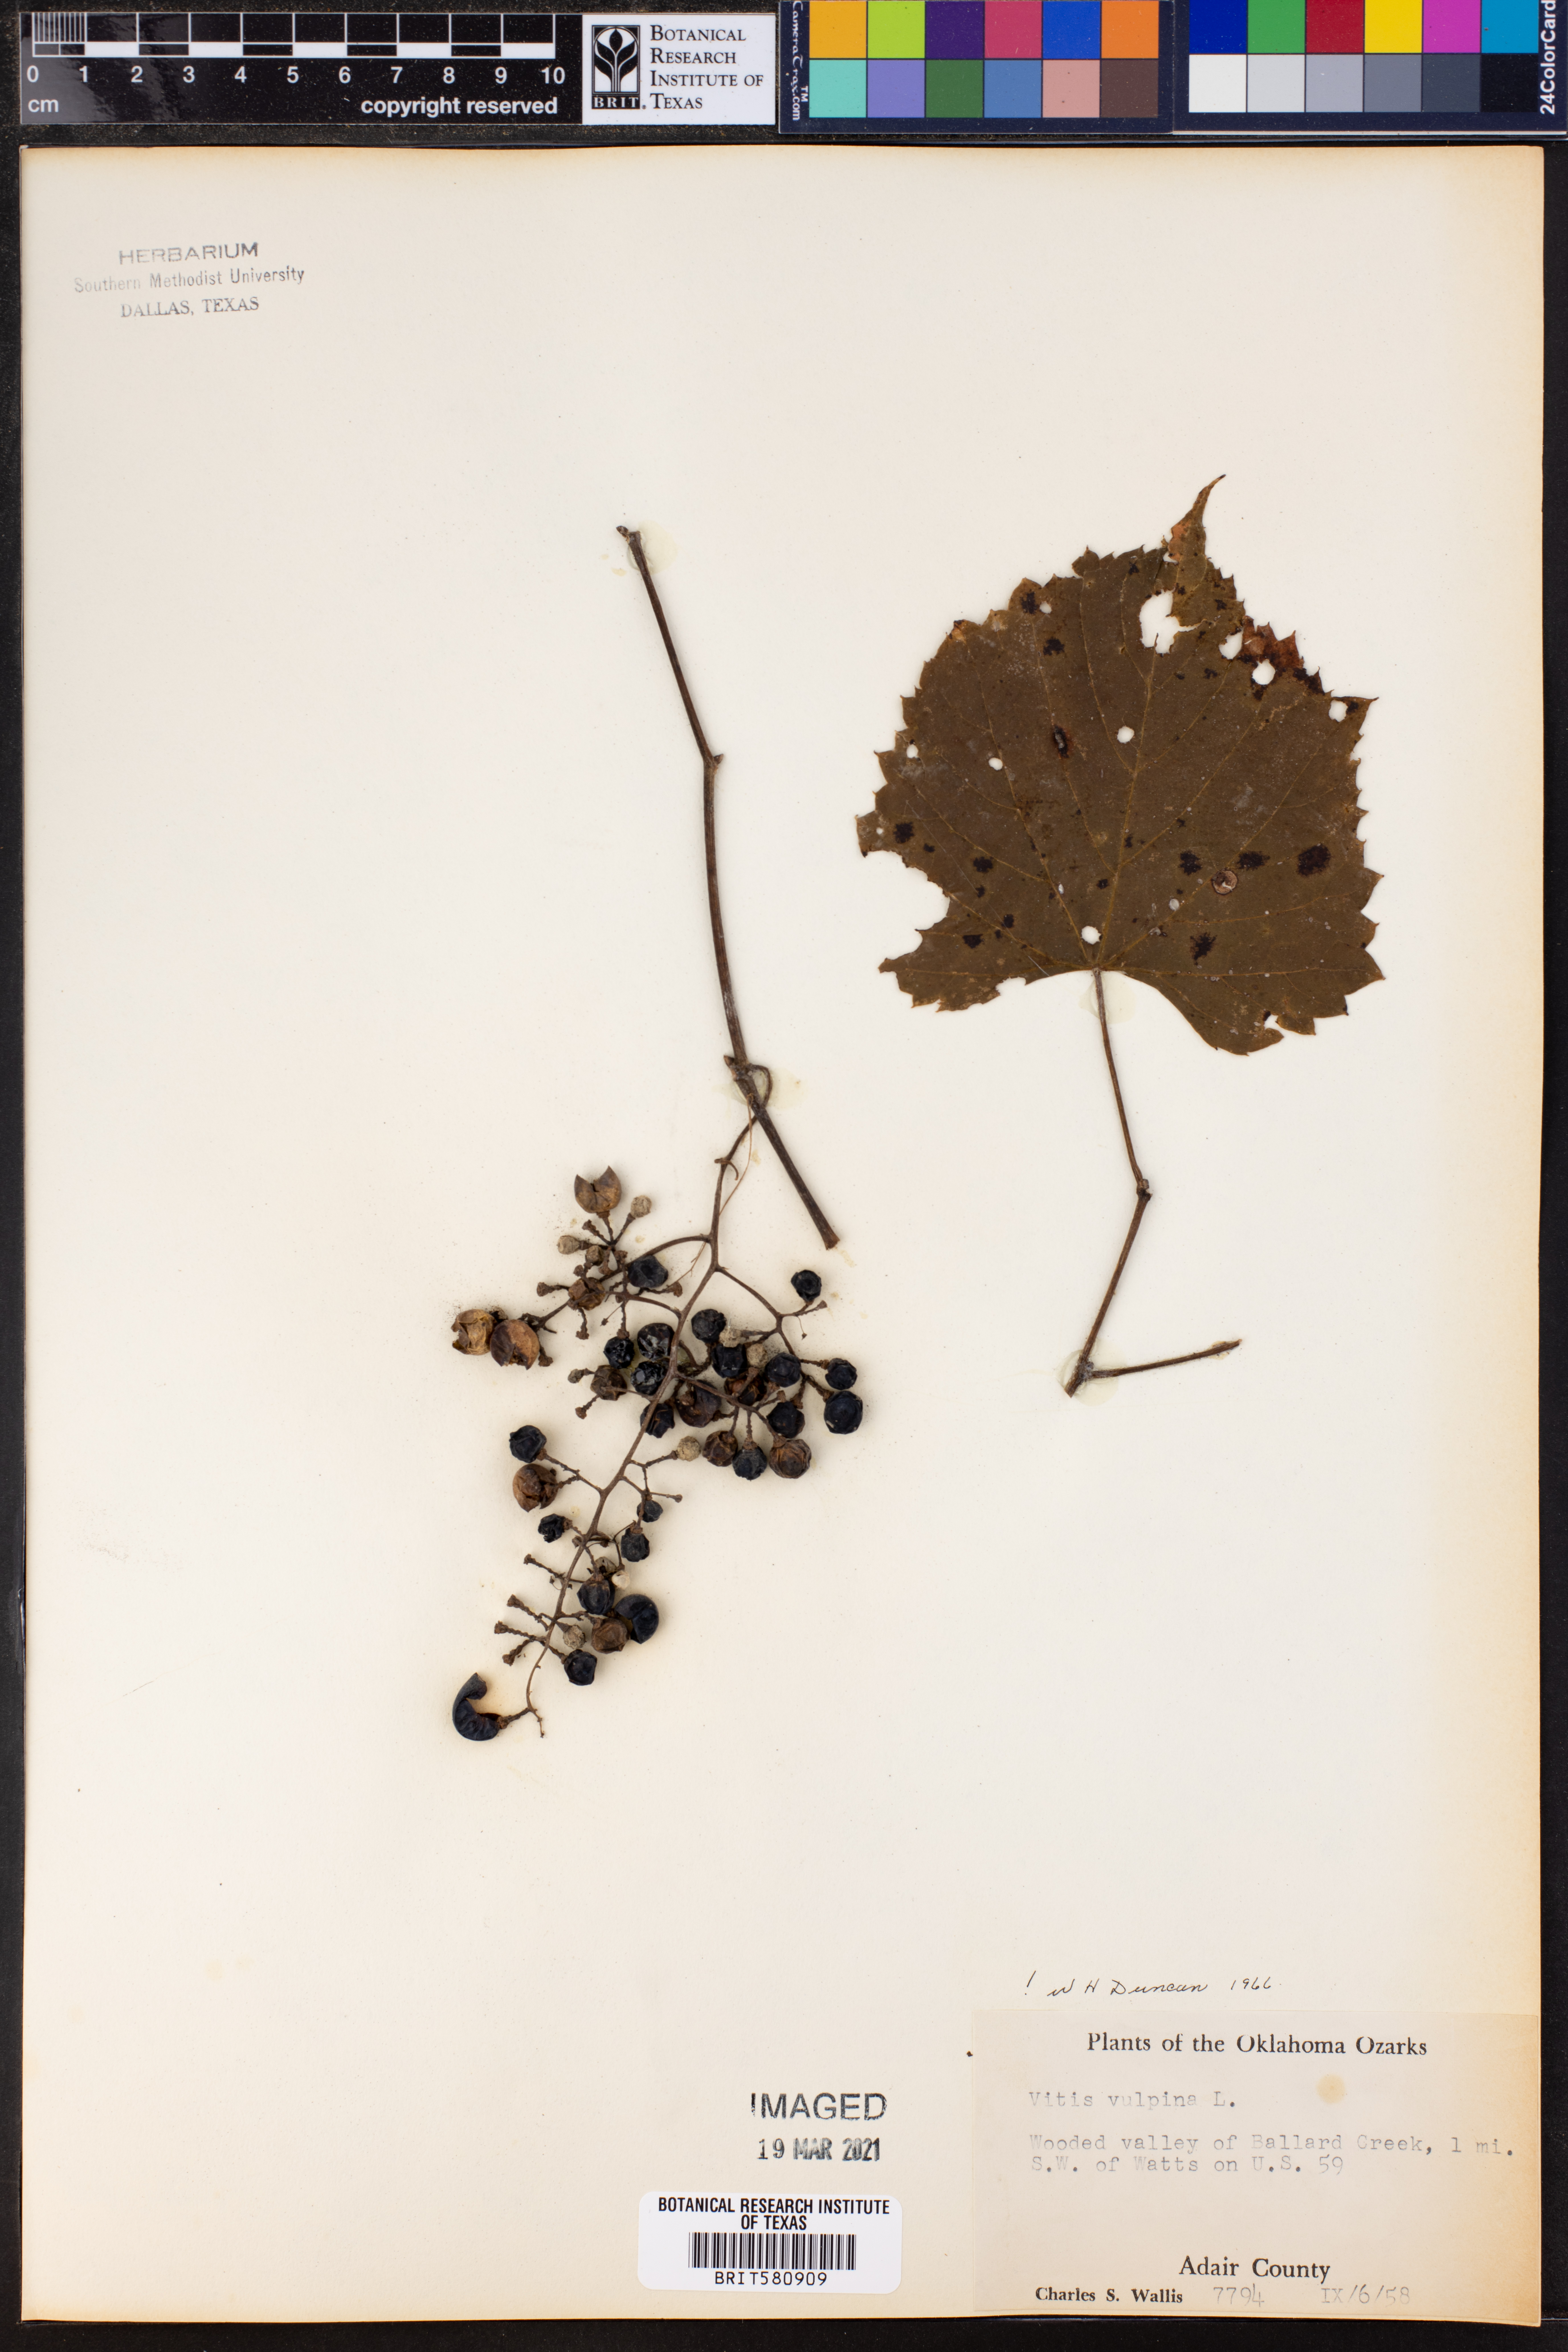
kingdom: Plantae
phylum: Tracheophyta
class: Magnoliopsida
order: Vitales
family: Vitaceae
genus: Vitis
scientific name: Vitis vulpina
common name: Frost grape
